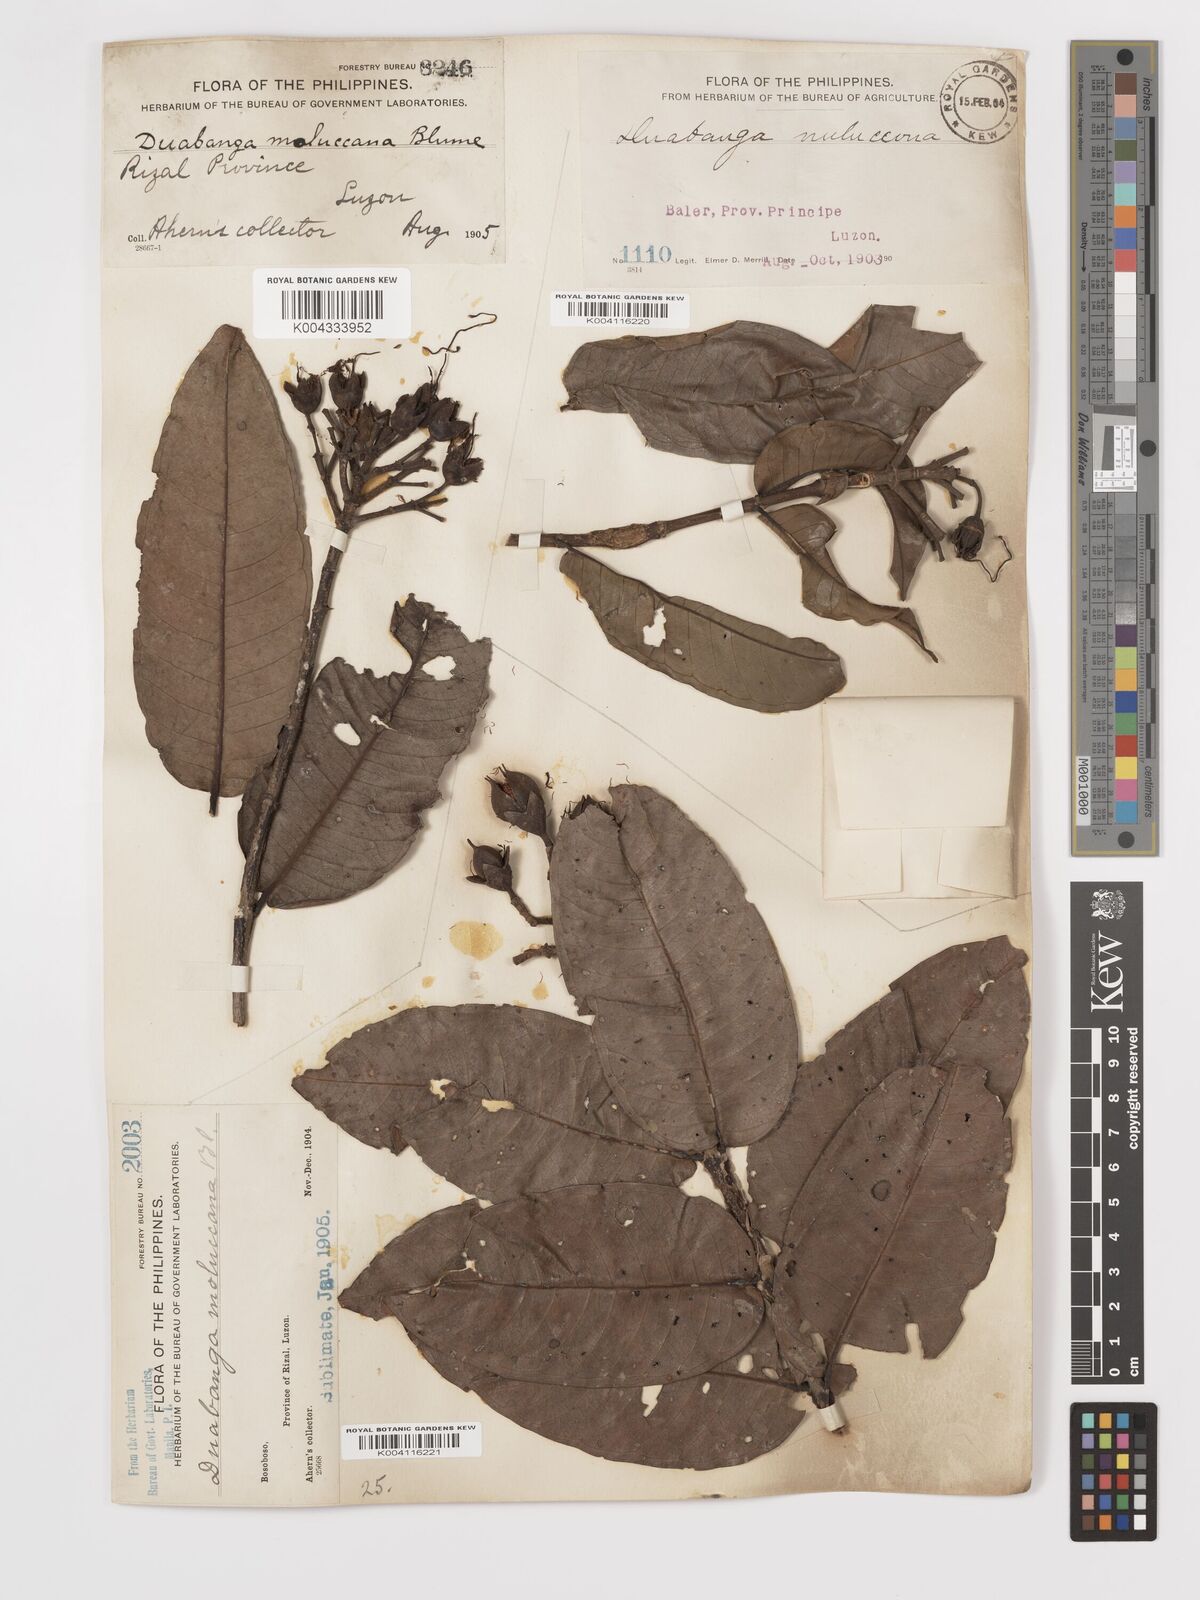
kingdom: Plantae
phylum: Tracheophyta
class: Magnoliopsida
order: Myrtales
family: Lythraceae
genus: Duabanga
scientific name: Duabanga moluccana
